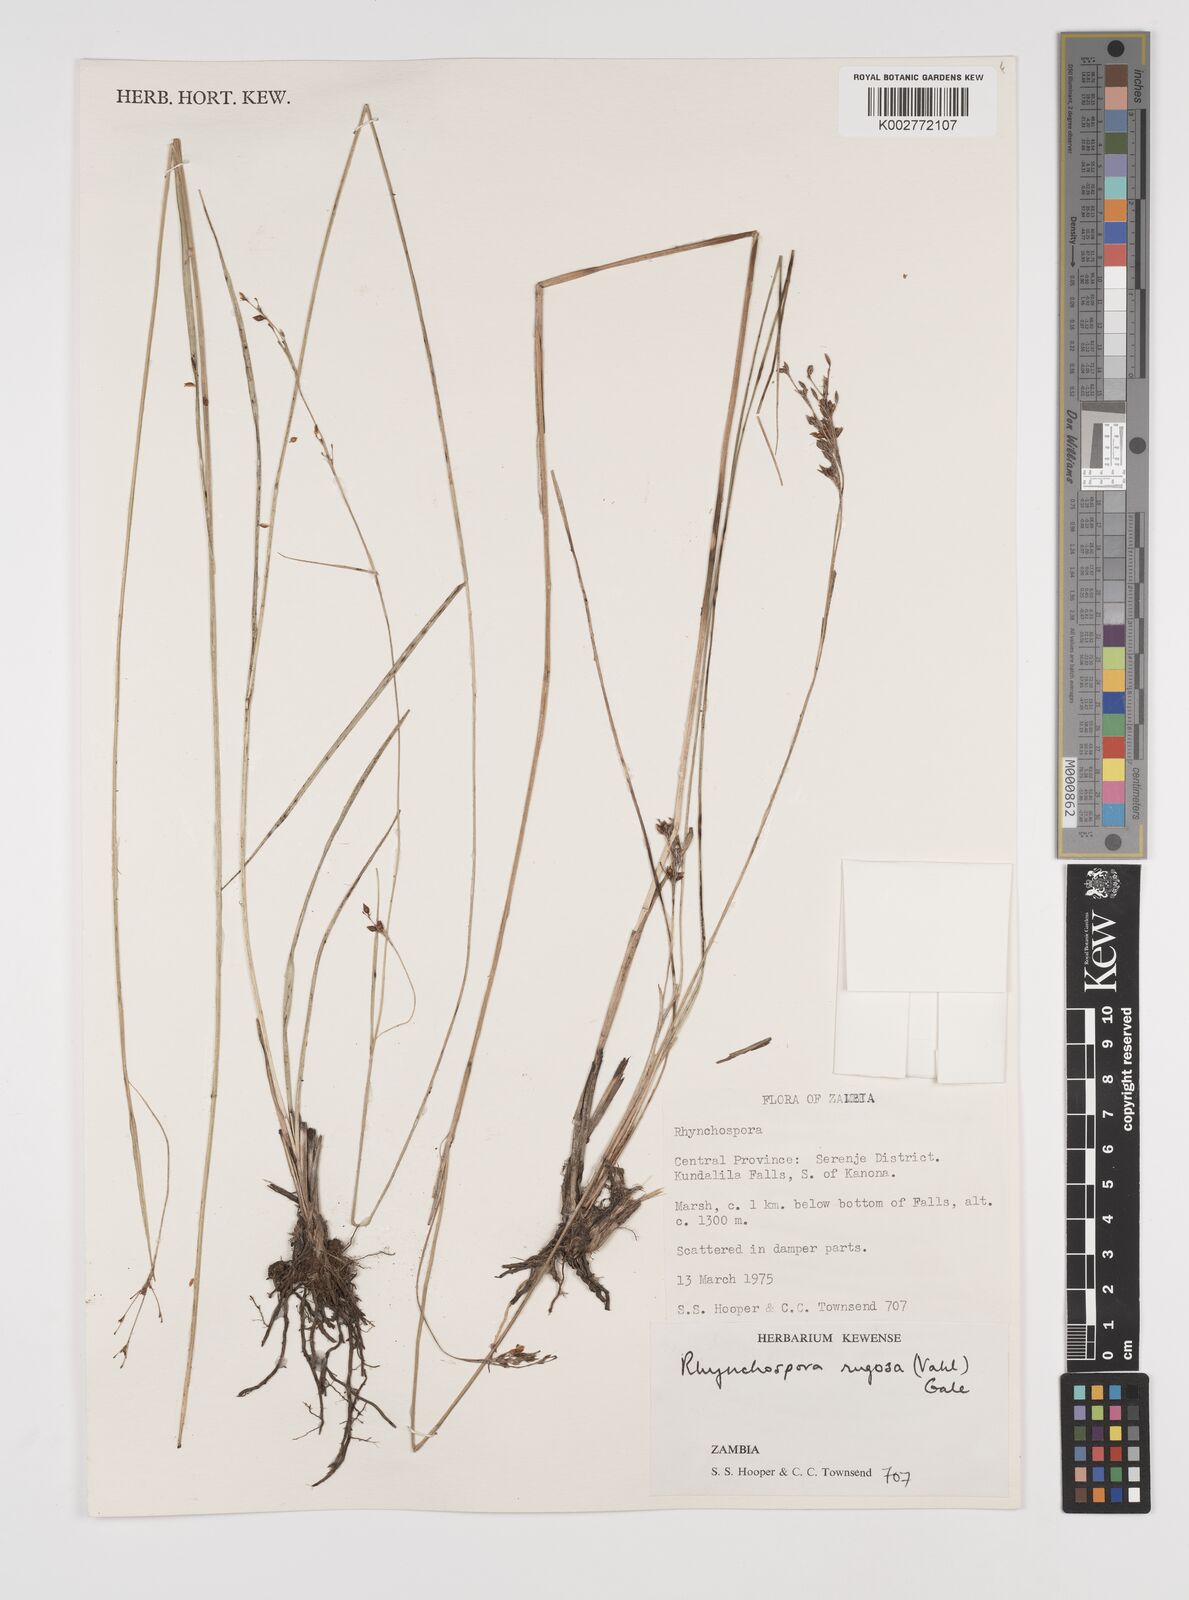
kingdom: Plantae
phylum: Tracheophyta
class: Liliopsida
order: Poales
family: Cyperaceae
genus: Rhynchospora
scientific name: Rhynchospora rugosa
